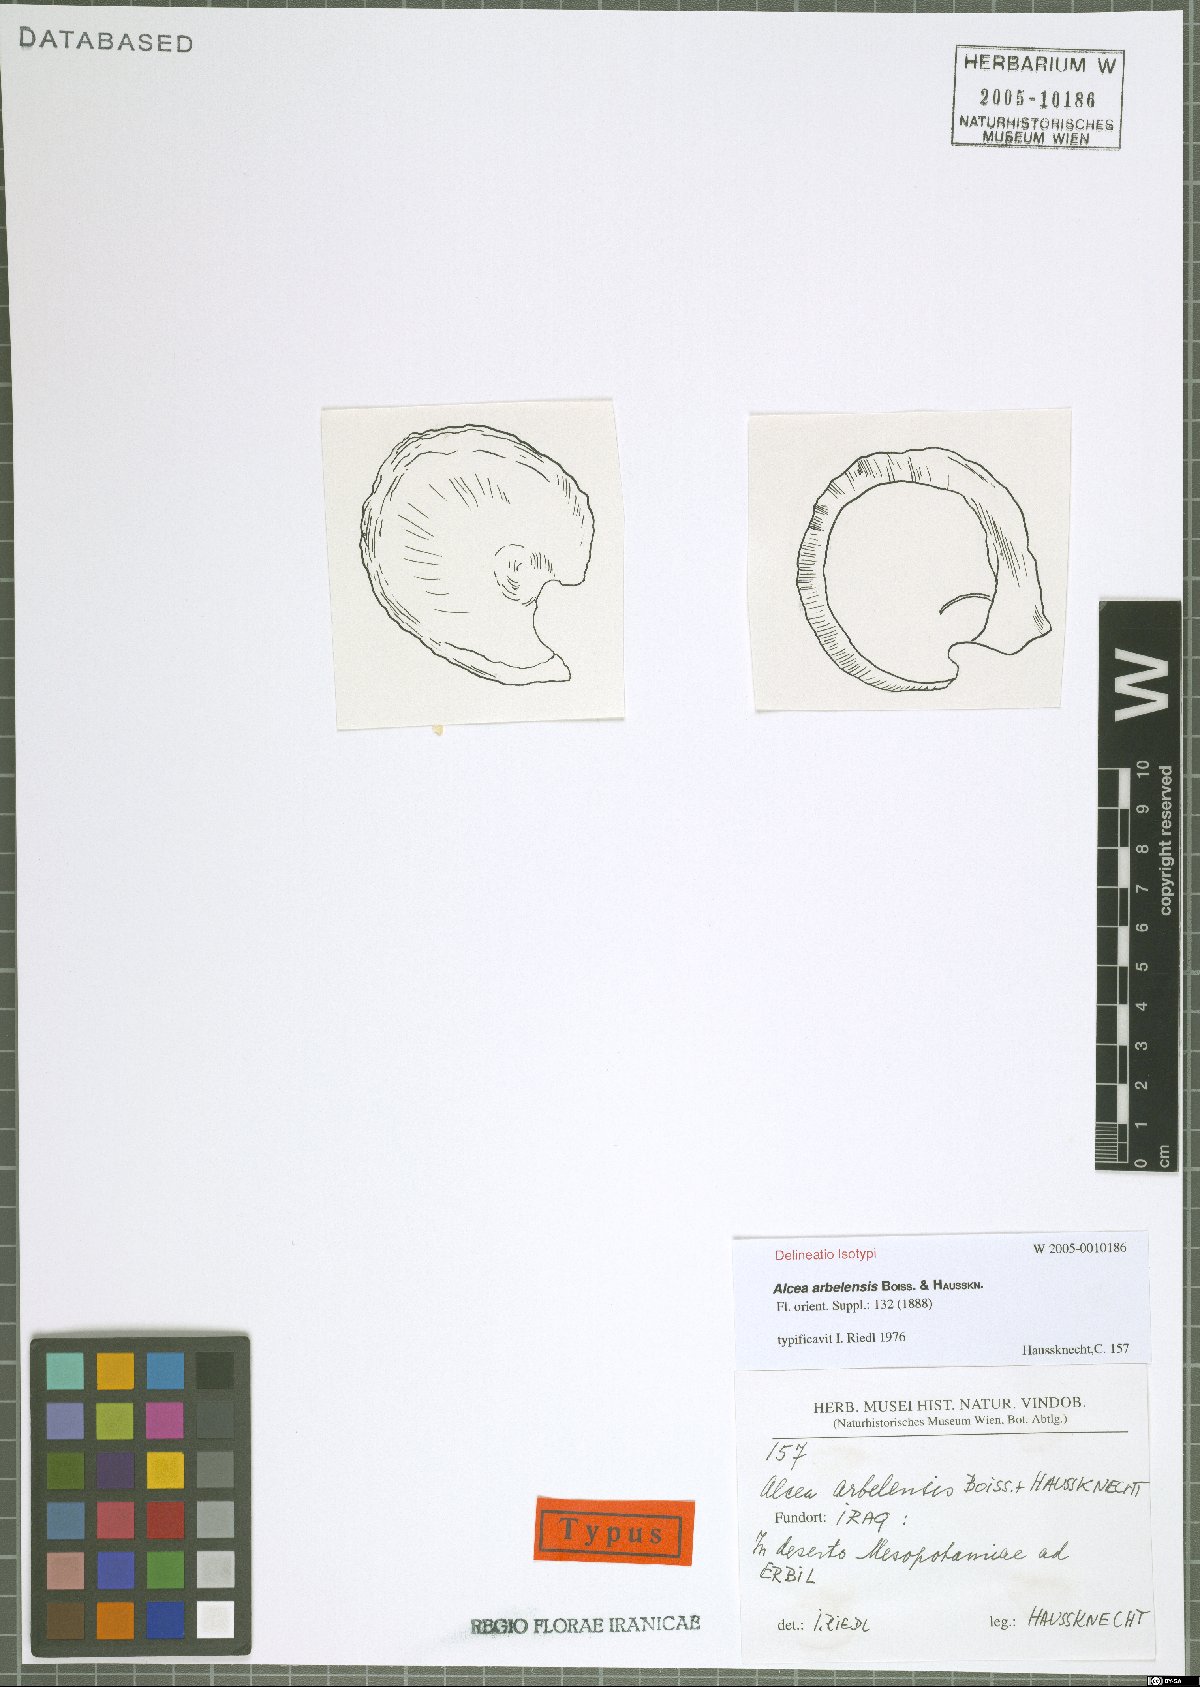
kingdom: Plantae
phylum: Tracheophyta
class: Magnoliopsida
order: Malvales
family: Malvaceae
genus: Alcea
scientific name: Alcea arbelensis
